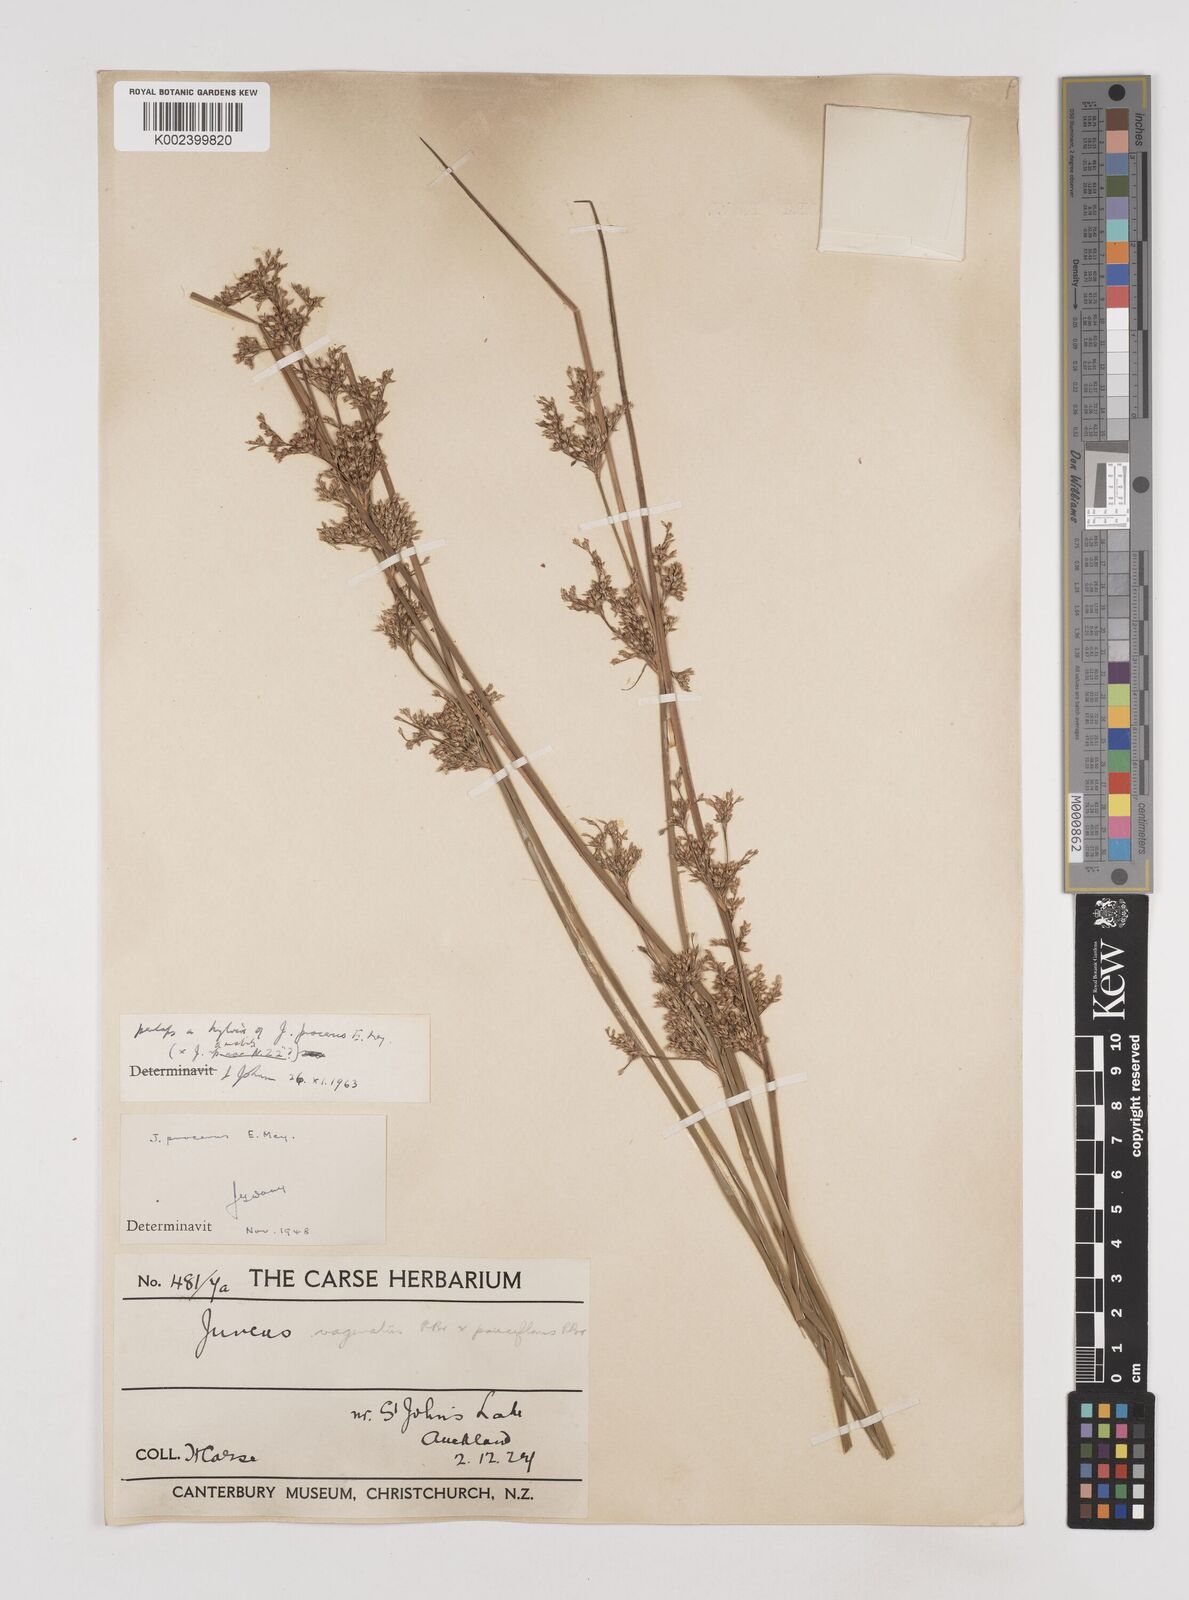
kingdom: Plantae
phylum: Tracheophyta
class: Liliopsida
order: Poales
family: Juncaceae
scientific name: Juncaceae
